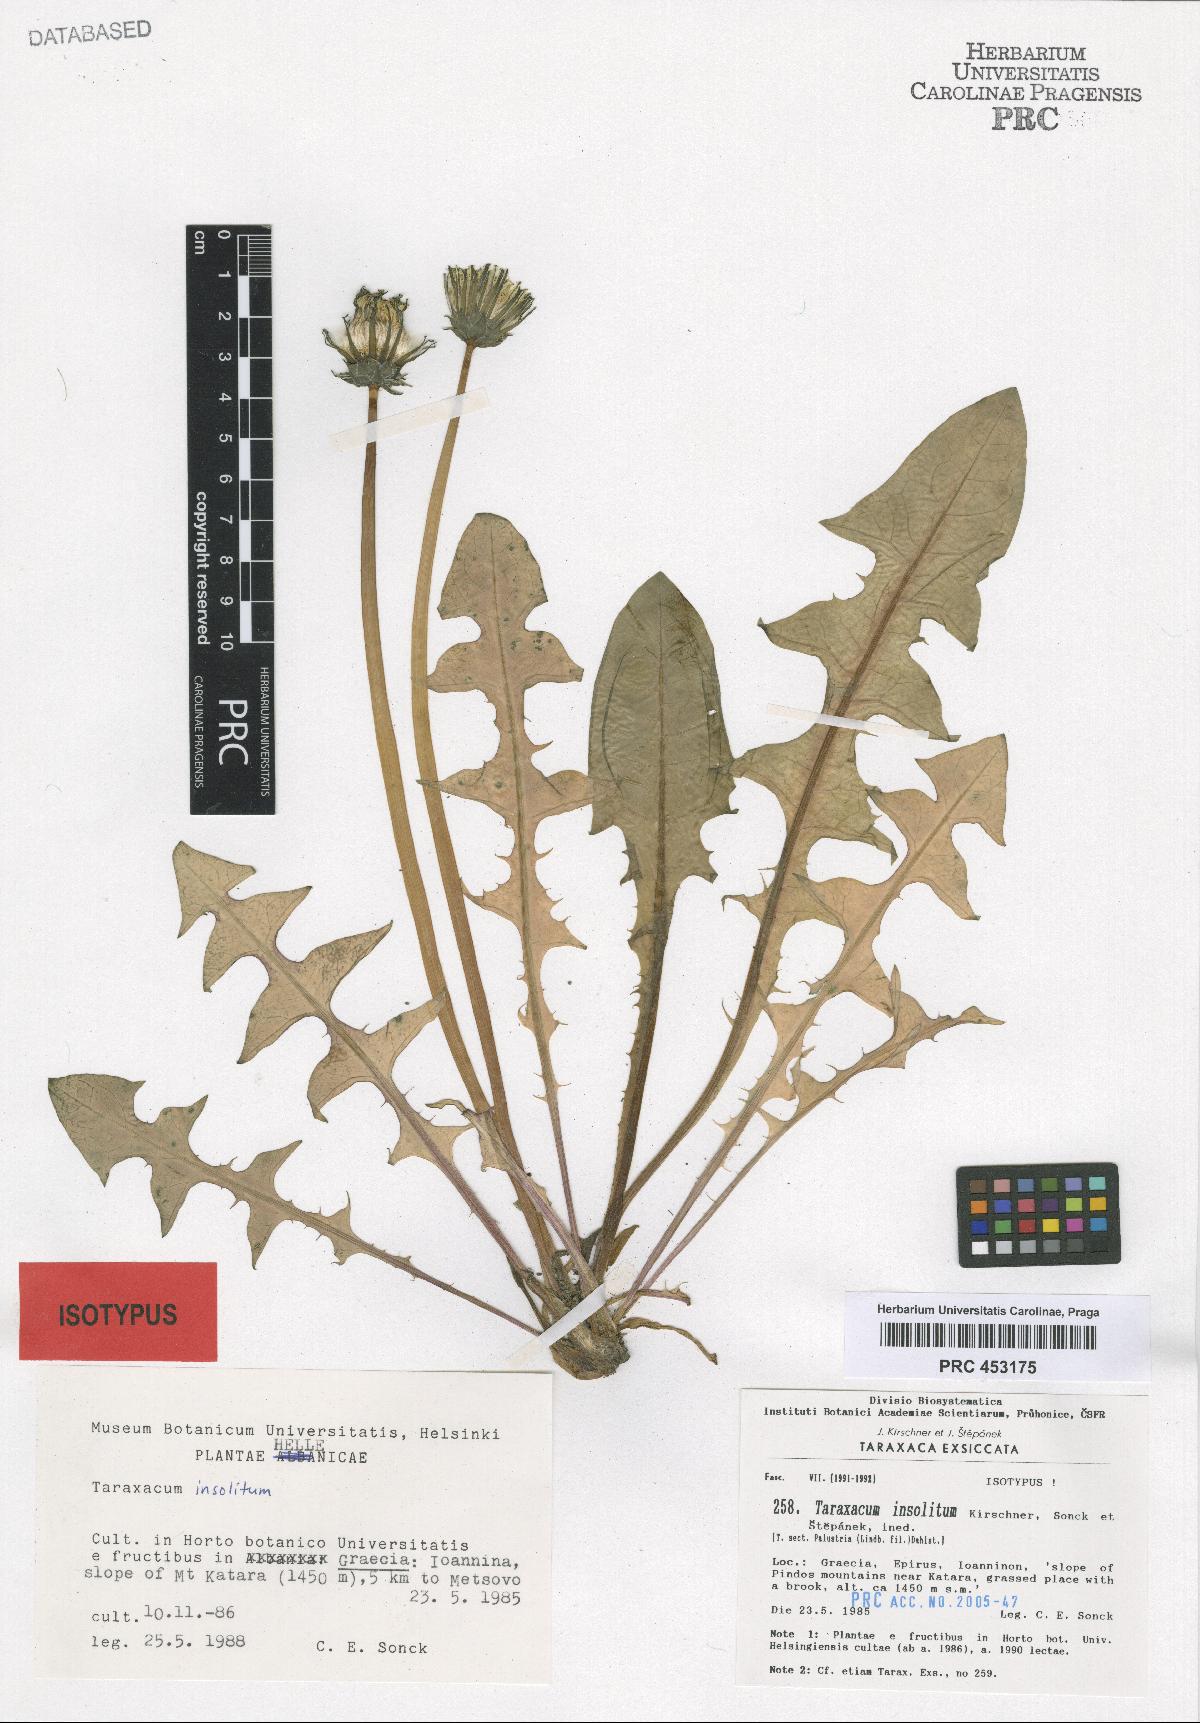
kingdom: Plantae
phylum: Tracheophyta
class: Magnoliopsida
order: Asterales
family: Asteraceae
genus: Taraxacum
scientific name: Taraxacum insolitum
